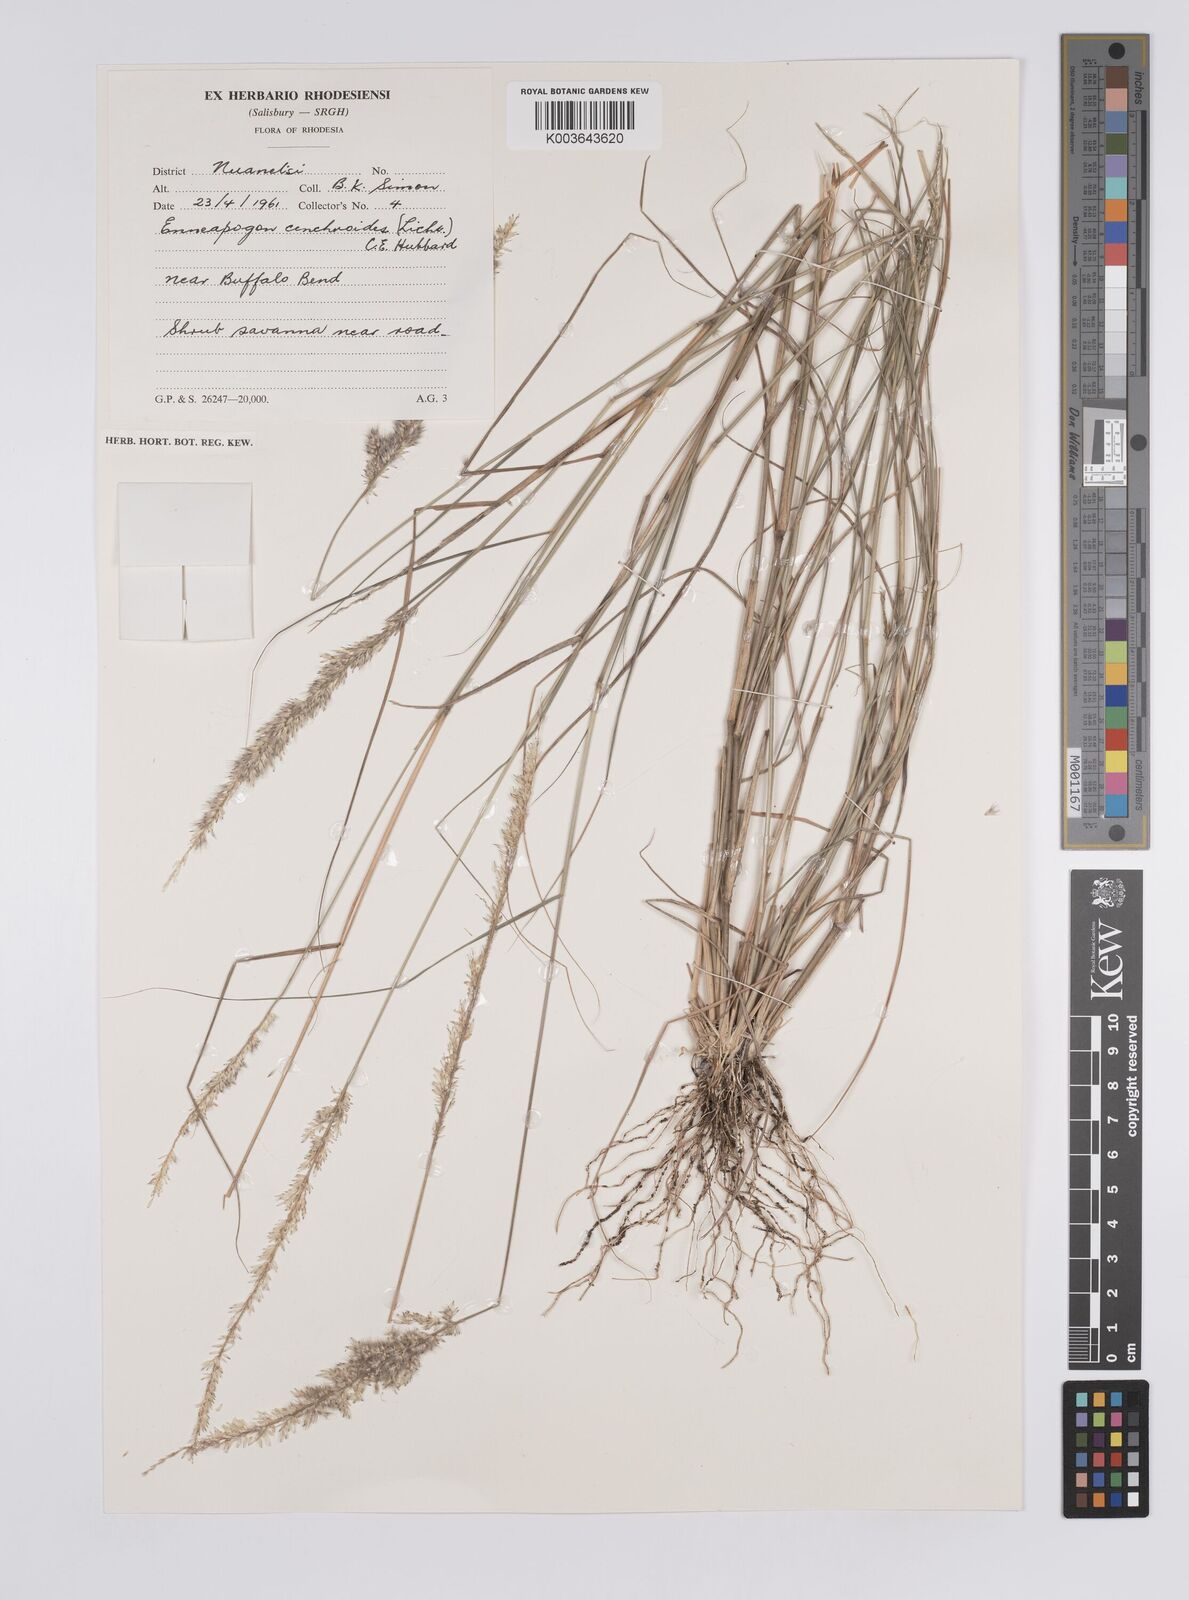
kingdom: Plantae
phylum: Tracheophyta
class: Liliopsida
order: Poales
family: Poaceae
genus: Enneapogon
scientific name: Enneapogon cenchroides
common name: Soft feather pappusgrass
